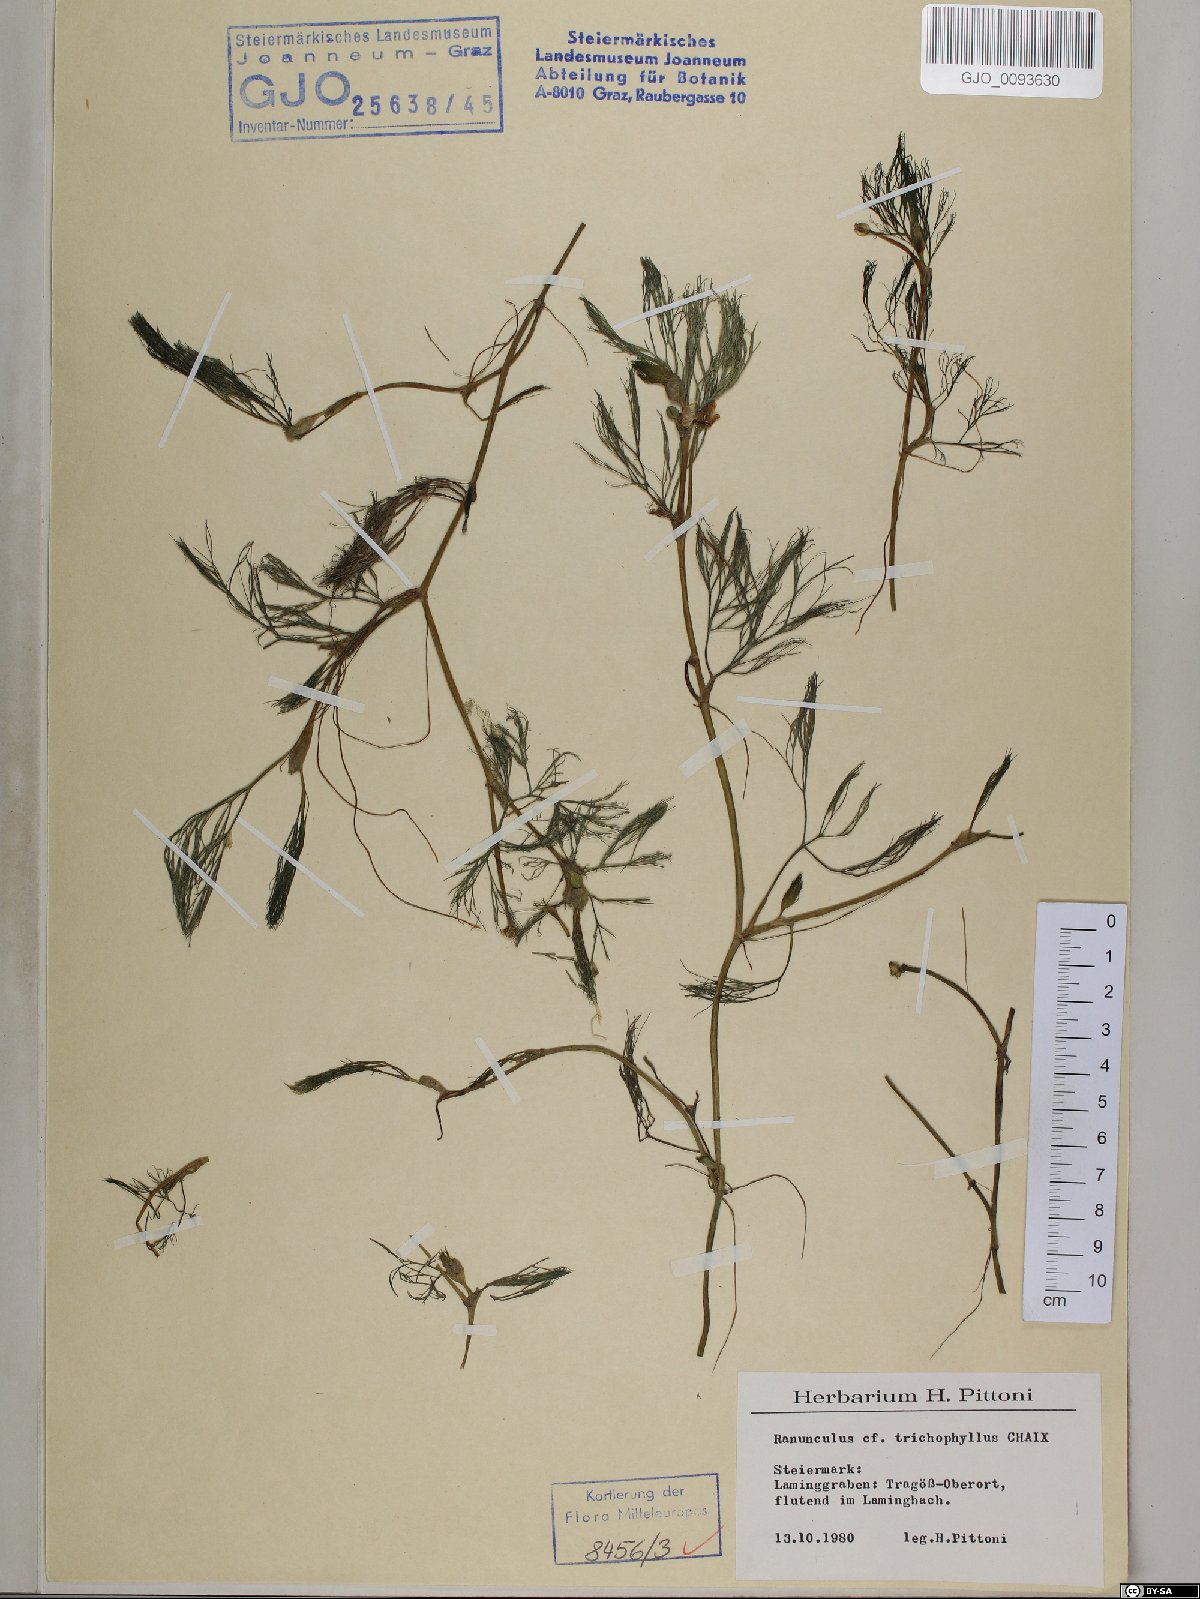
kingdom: Plantae
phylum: Tracheophyta
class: Magnoliopsida
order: Ranunculales
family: Ranunculaceae
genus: Ranunculus
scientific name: Ranunculus trichophyllus
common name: Thread-leaved water-crowfoot
